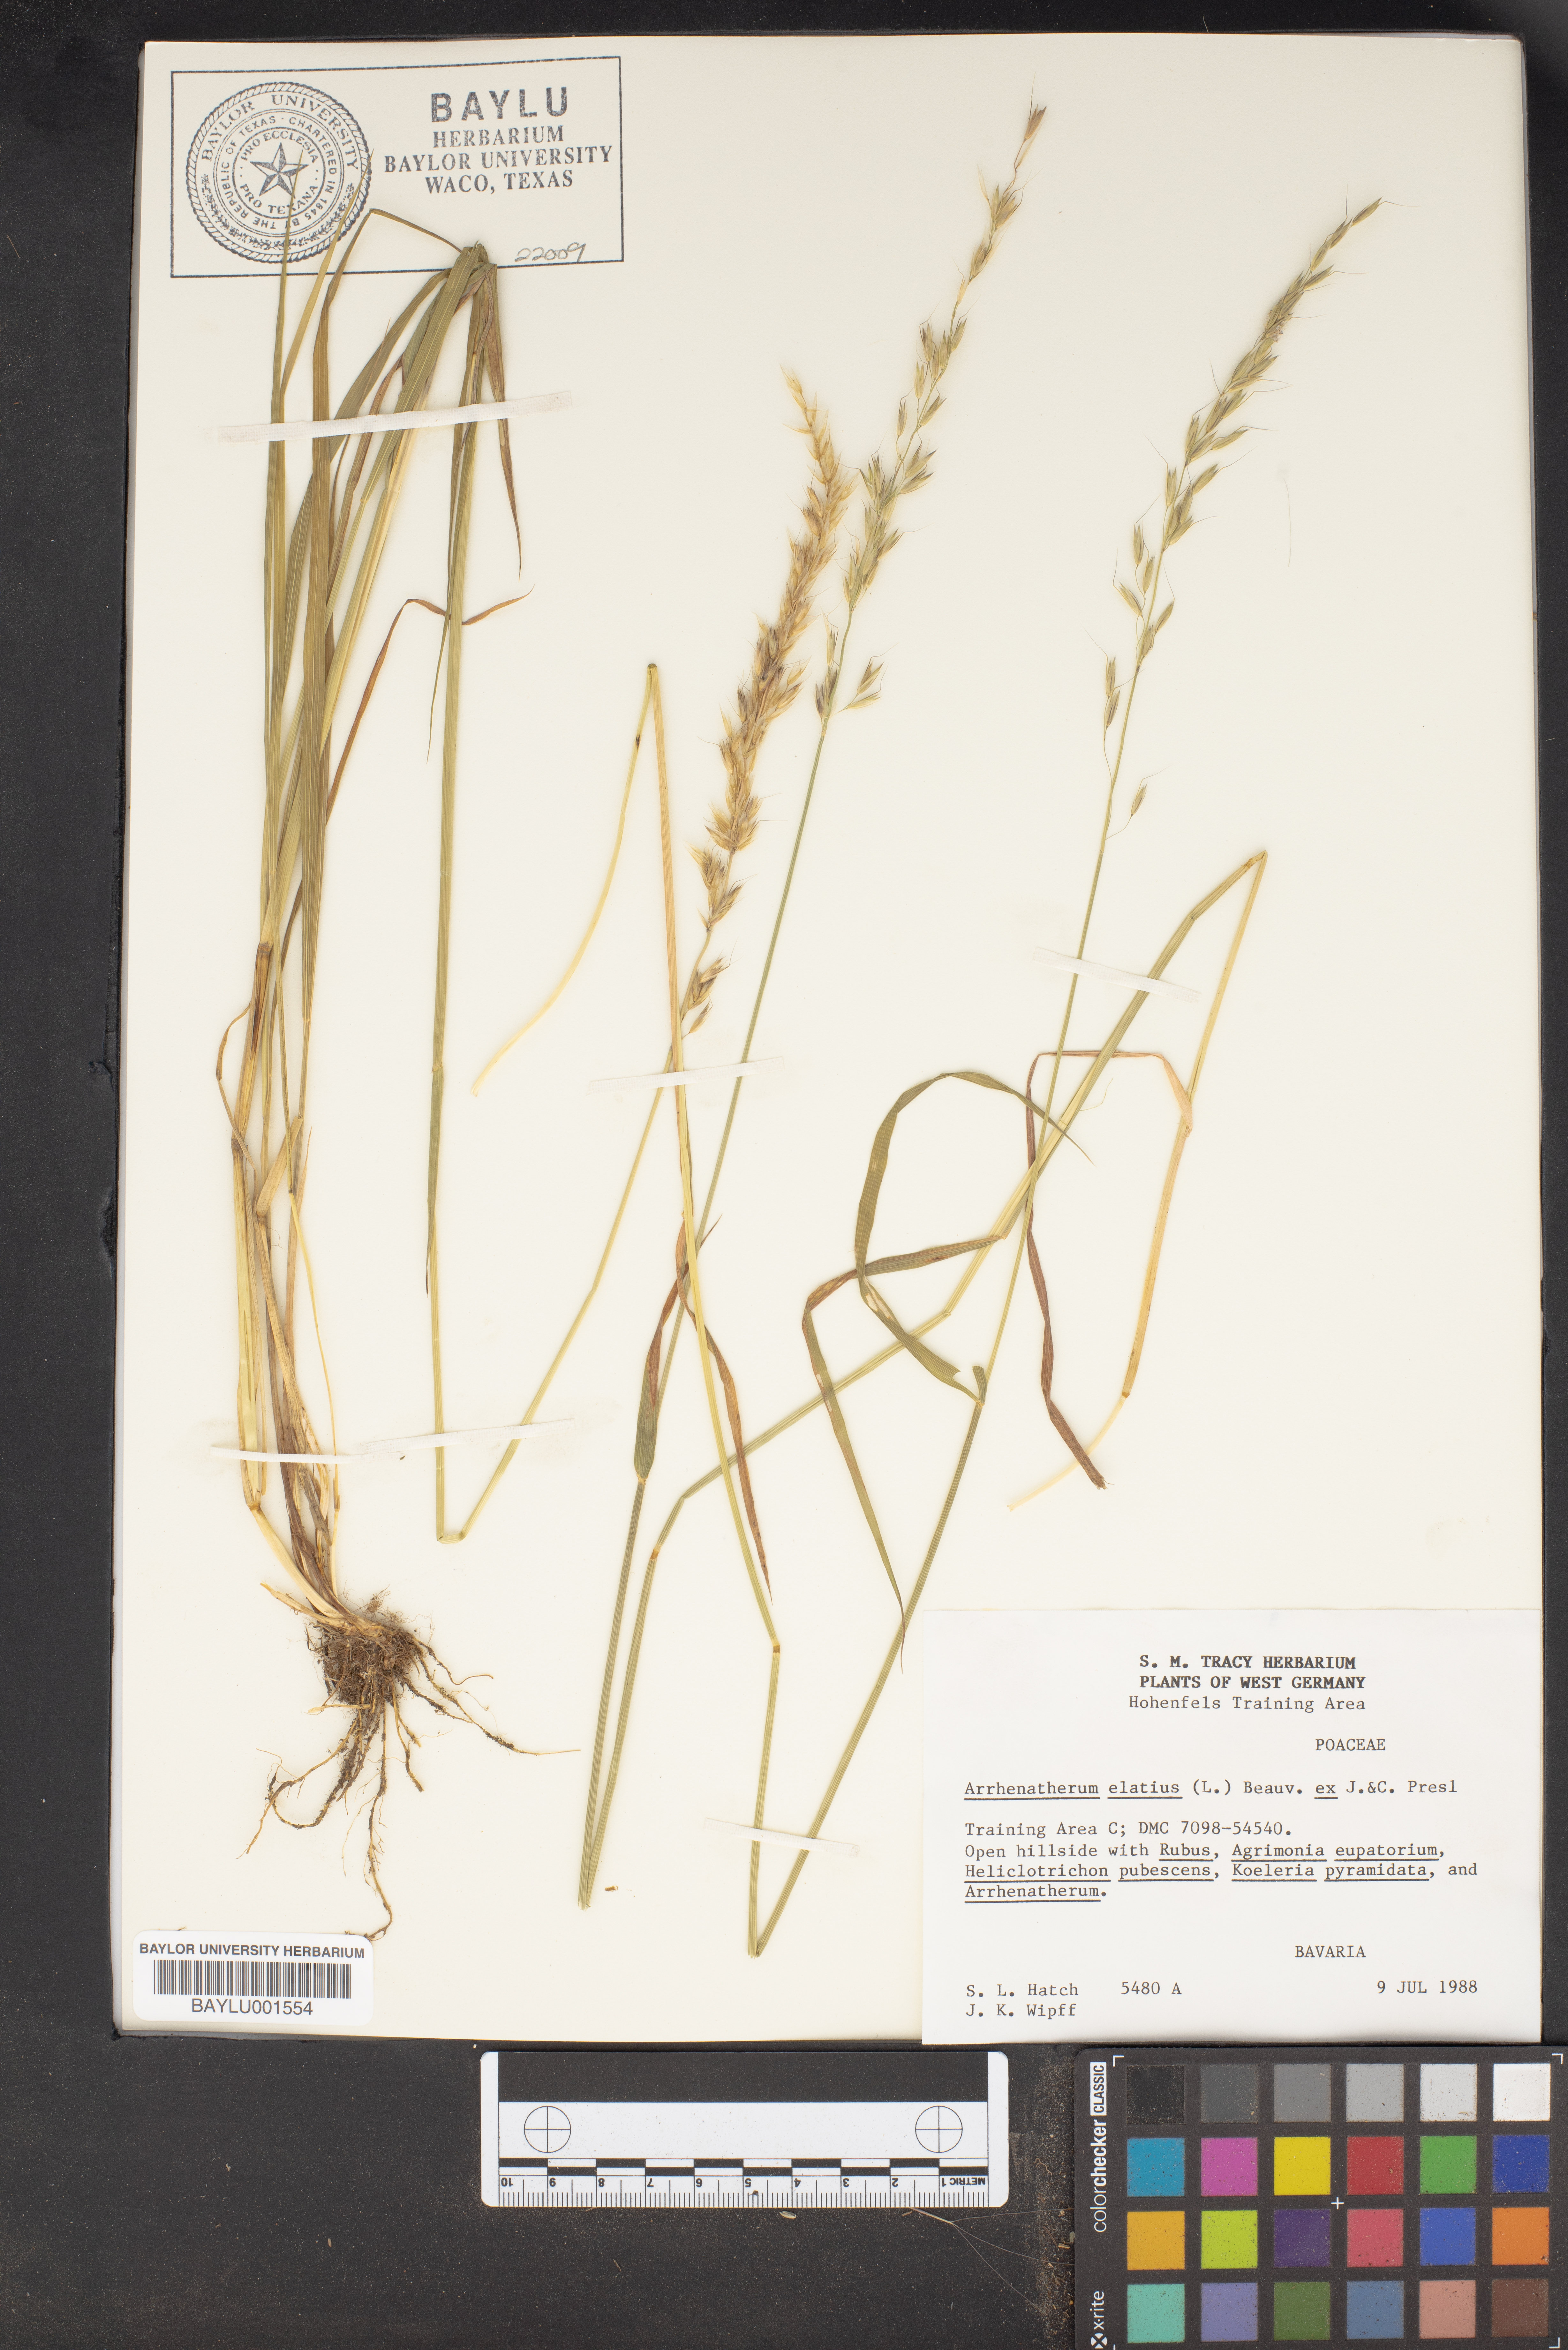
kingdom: Plantae
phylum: Tracheophyta
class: Liliopsida
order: Poales
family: Poaceae
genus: Arrhenatherum
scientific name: Arrhenatherum elatius
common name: Tall oatgrass
